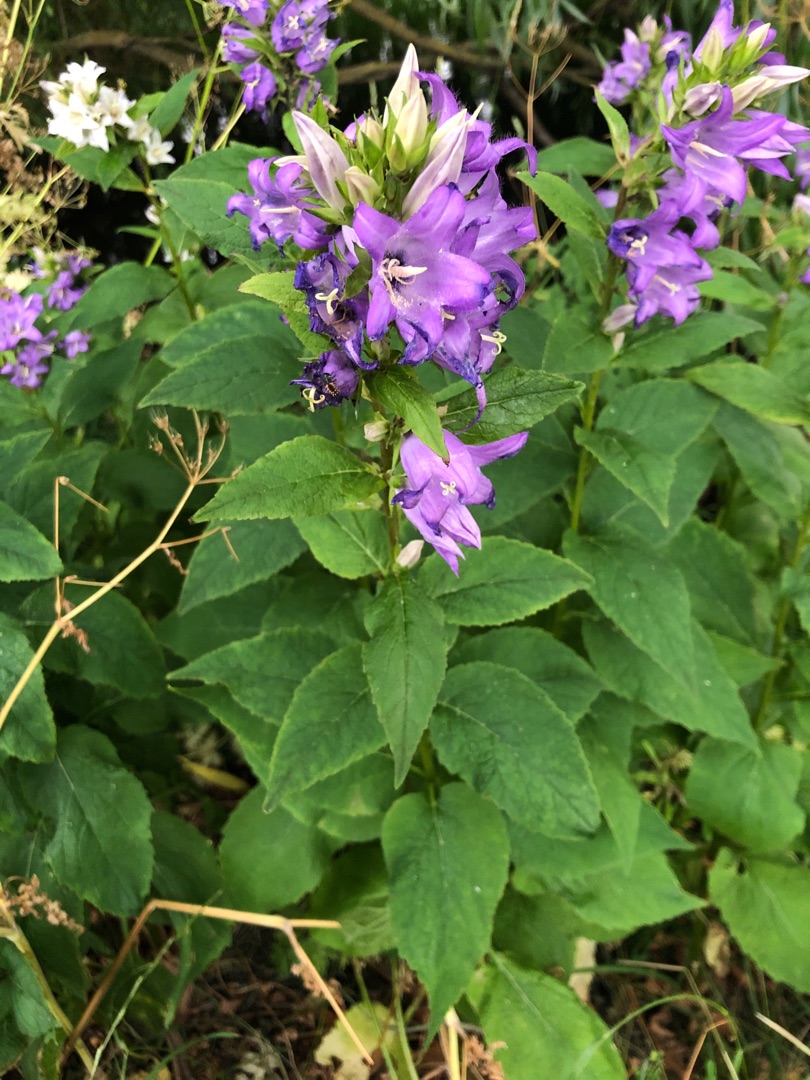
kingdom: Plantae
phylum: Tracheophyta
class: Magnoliopsida
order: Asterales
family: Campanulaceae
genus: Campanula
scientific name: Campanula latifolia
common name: Bredbladet klokke
